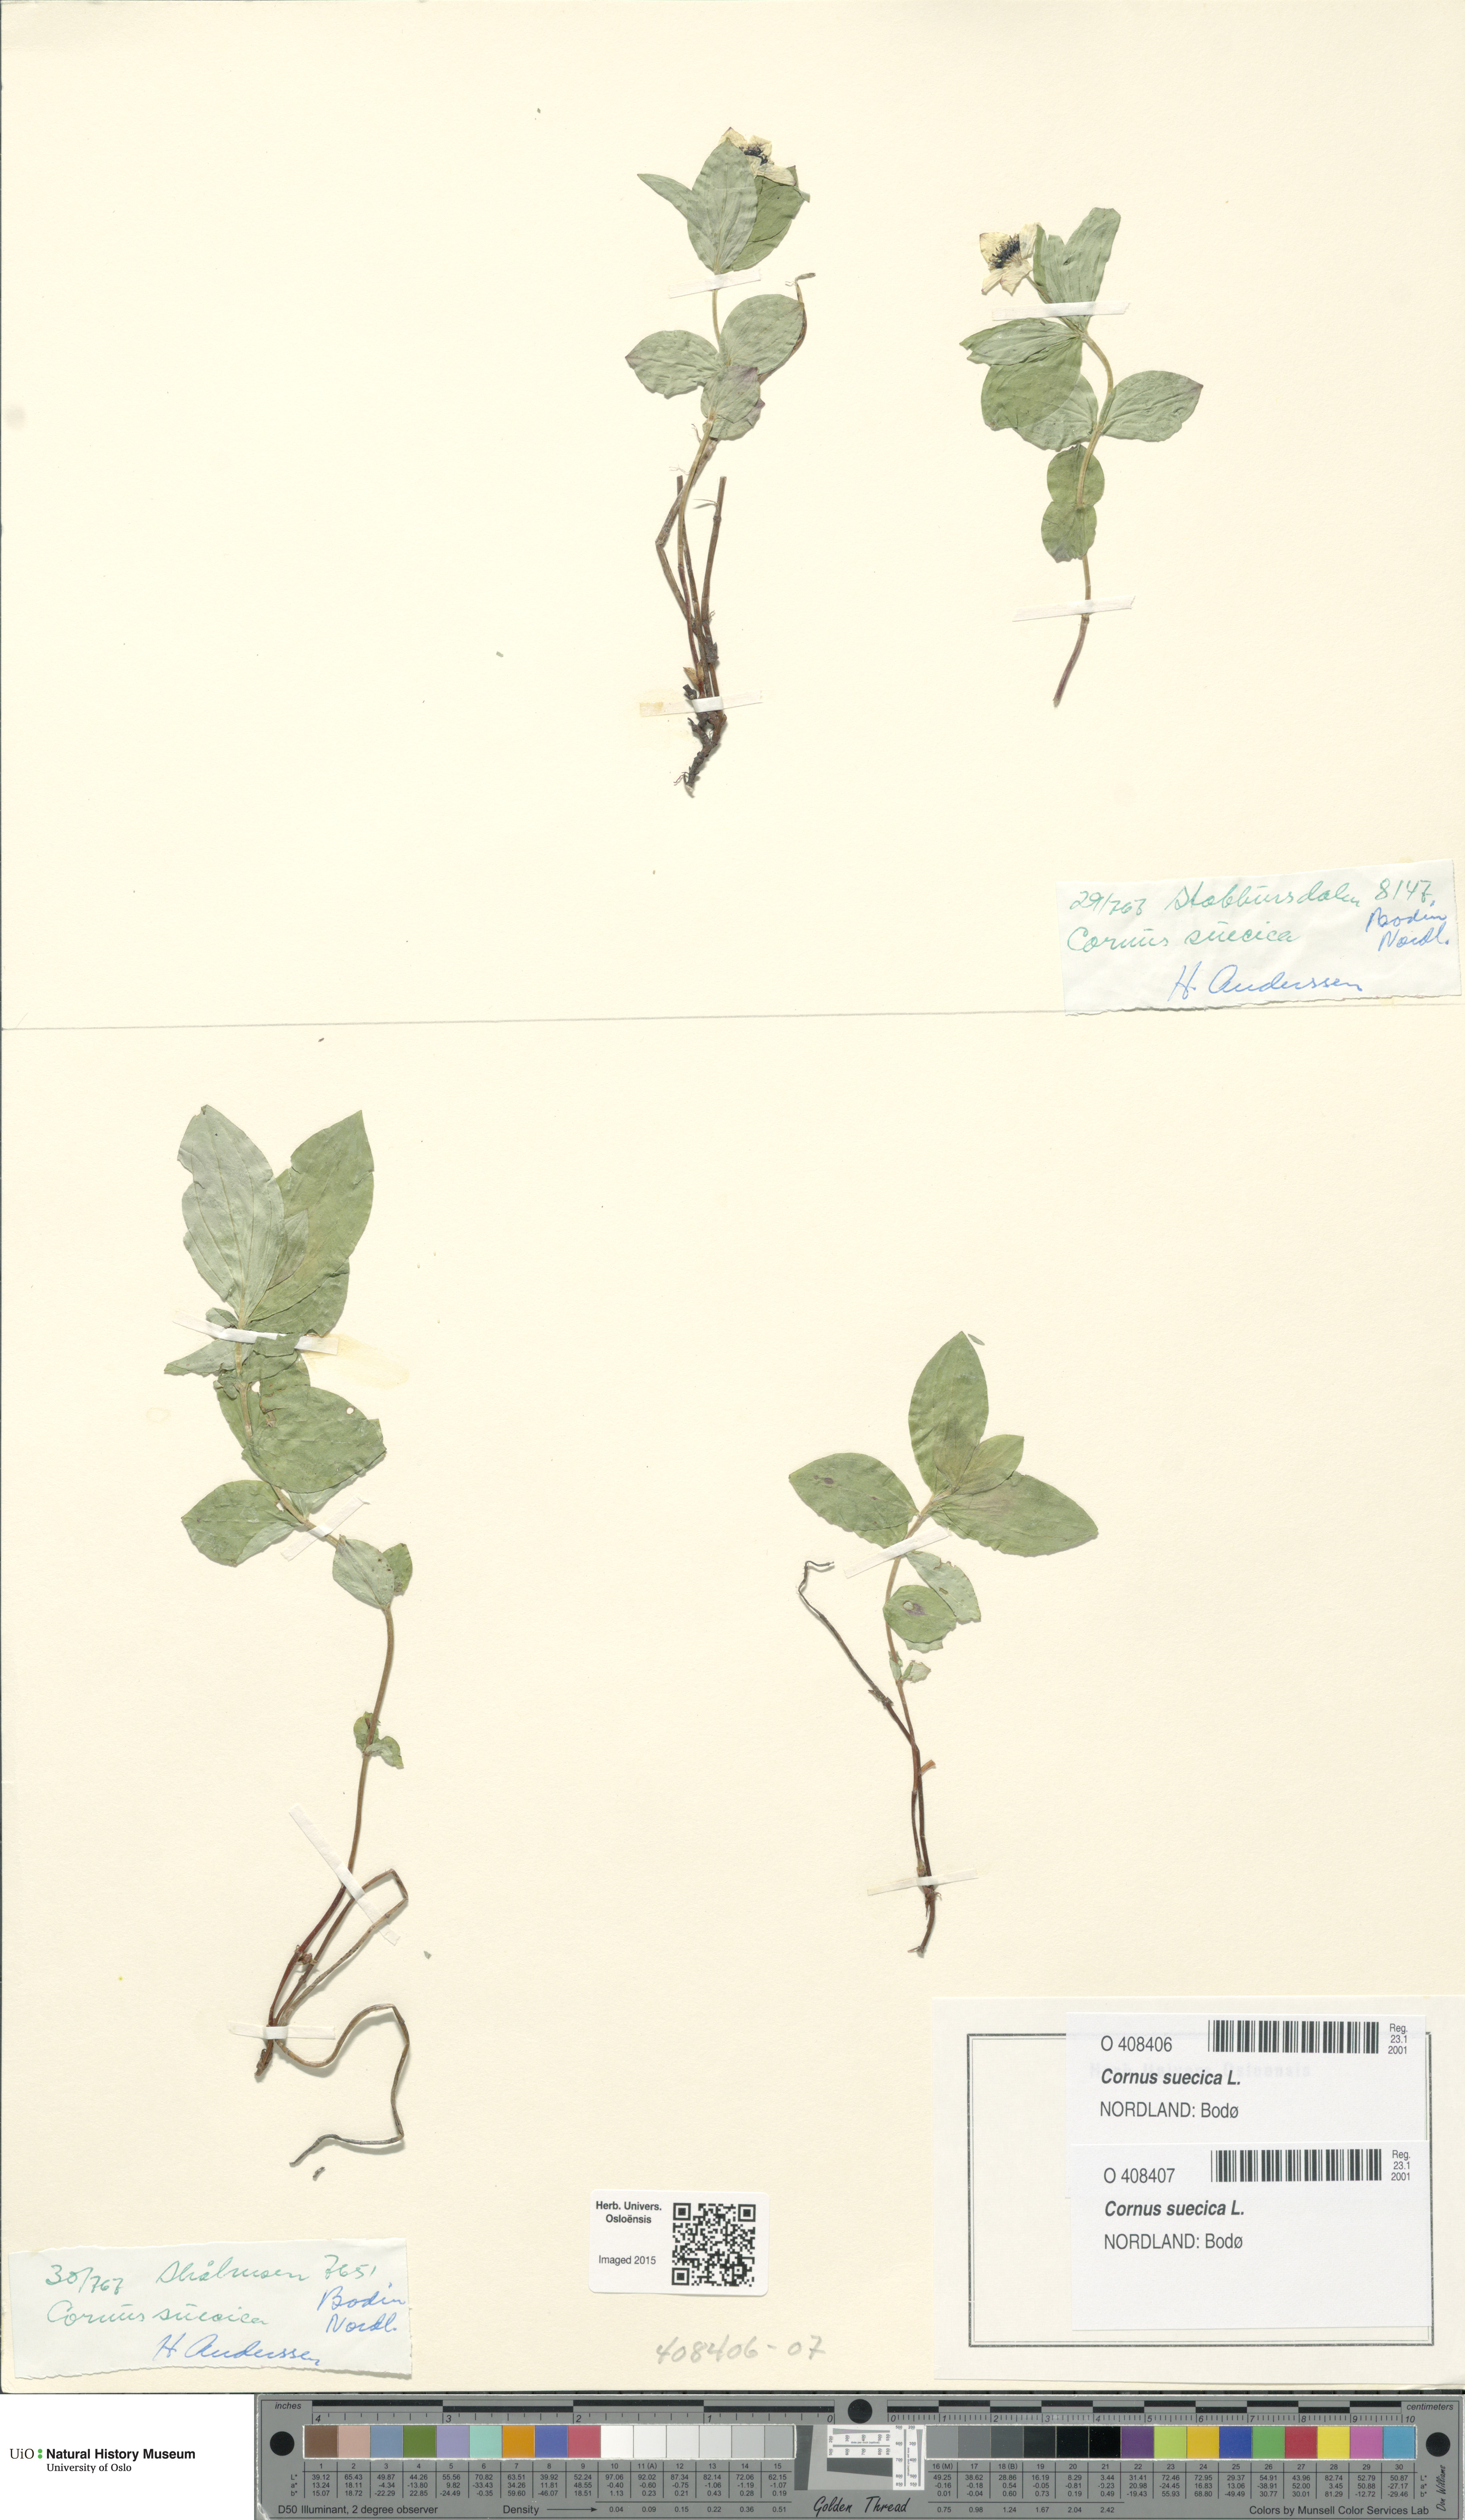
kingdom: Plantae
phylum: Tracheophyta
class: Magnoliopsida
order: Cornales
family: Cornaceae
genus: Cornus
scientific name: Cornus suecica
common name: Dwarf cornel
